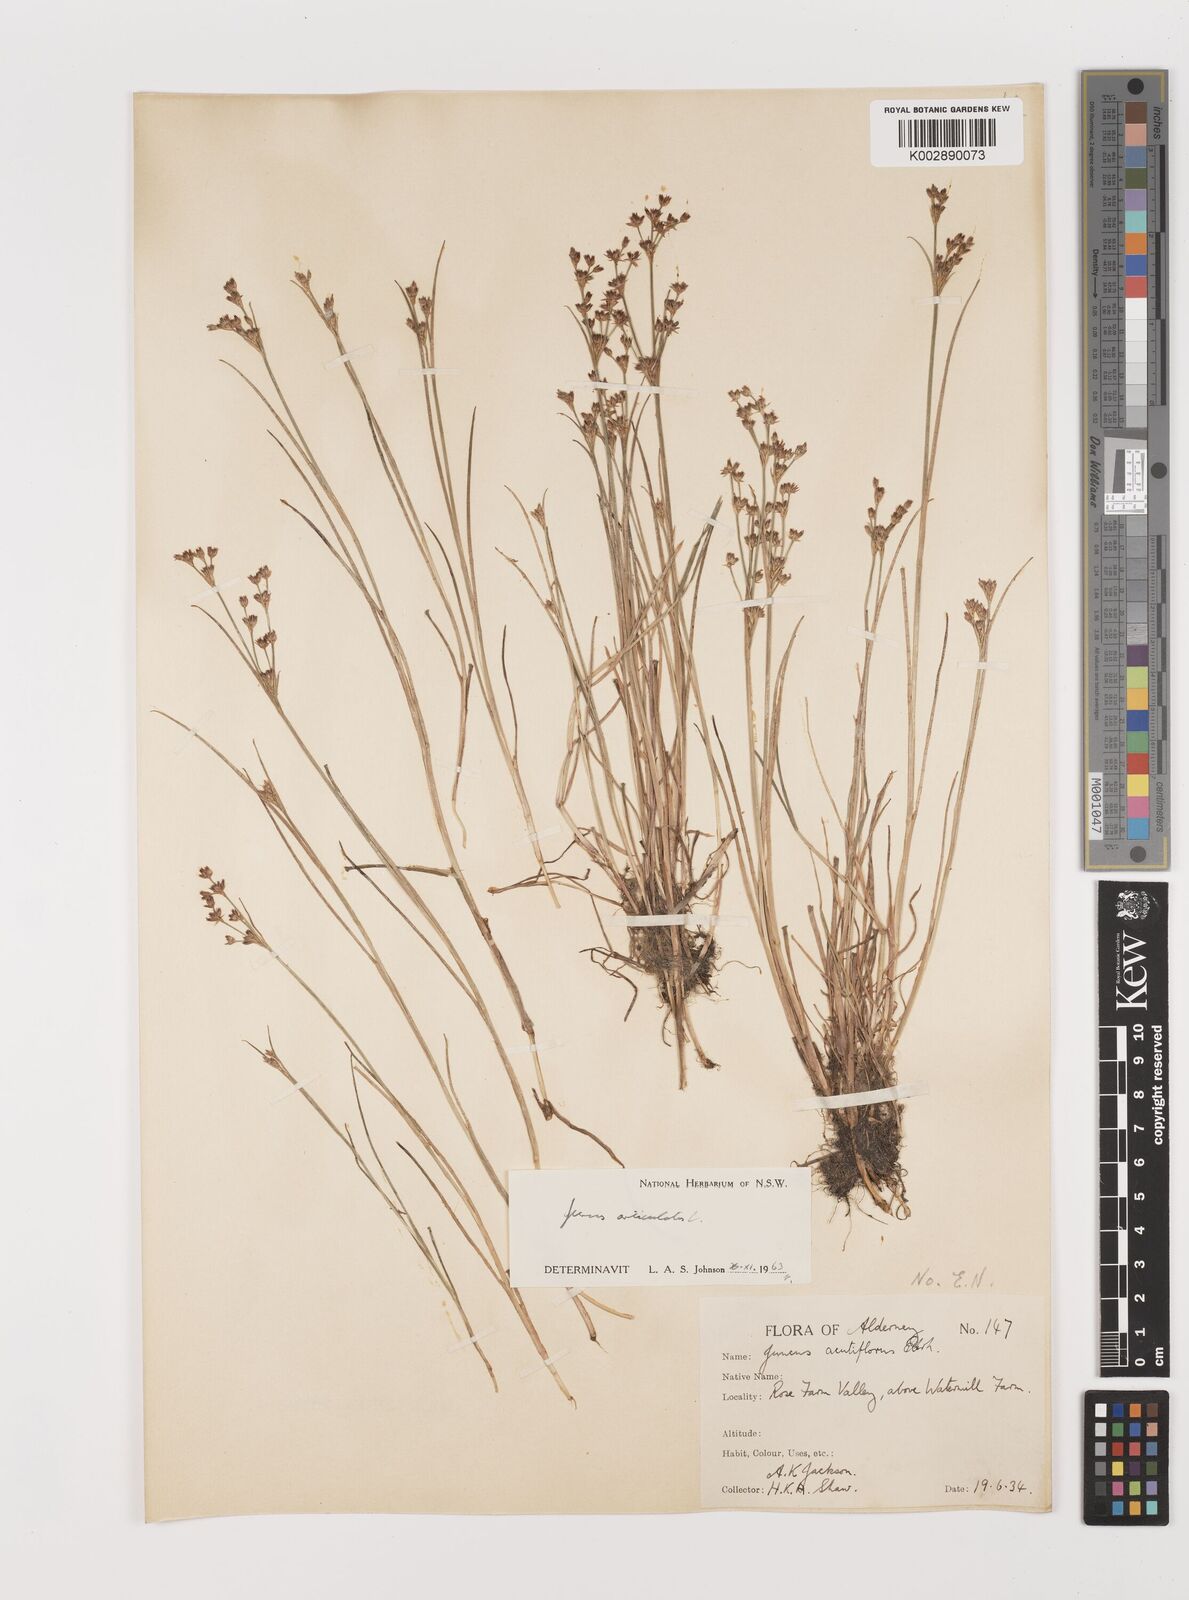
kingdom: Plantae
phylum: Tracheophyta
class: Liliopsida
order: Poales
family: Juncaceae
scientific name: Juncaceae
